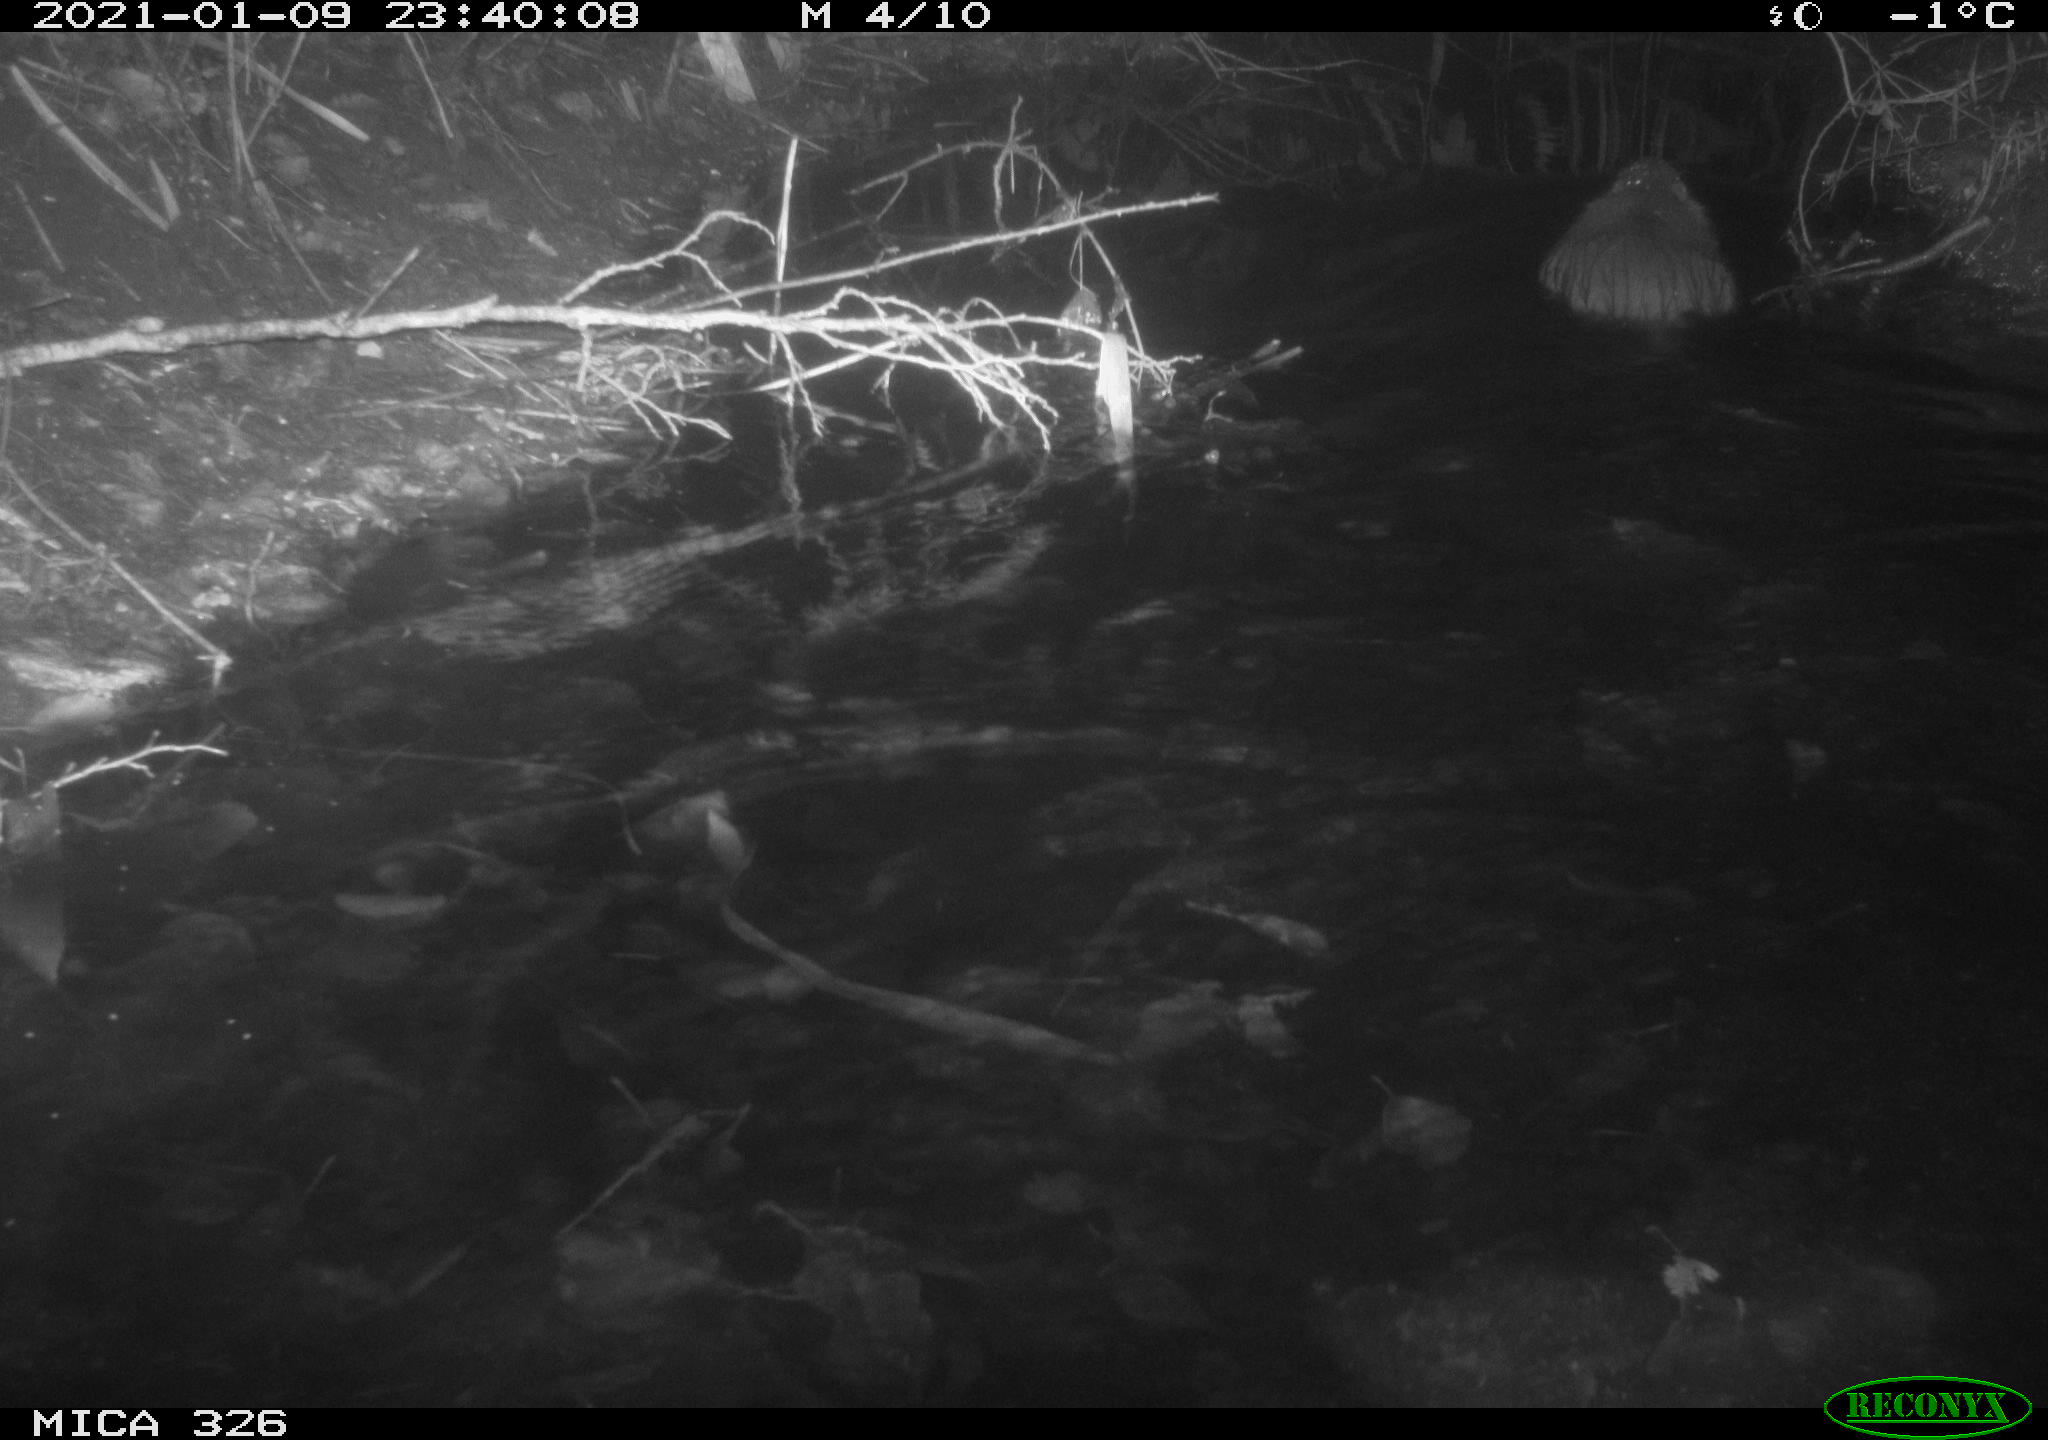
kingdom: Animalia
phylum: Chordata
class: Mammalia
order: Rodentia
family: Myocastoridae
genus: Myocastor
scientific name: Myocastor coypus
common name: Coypu
